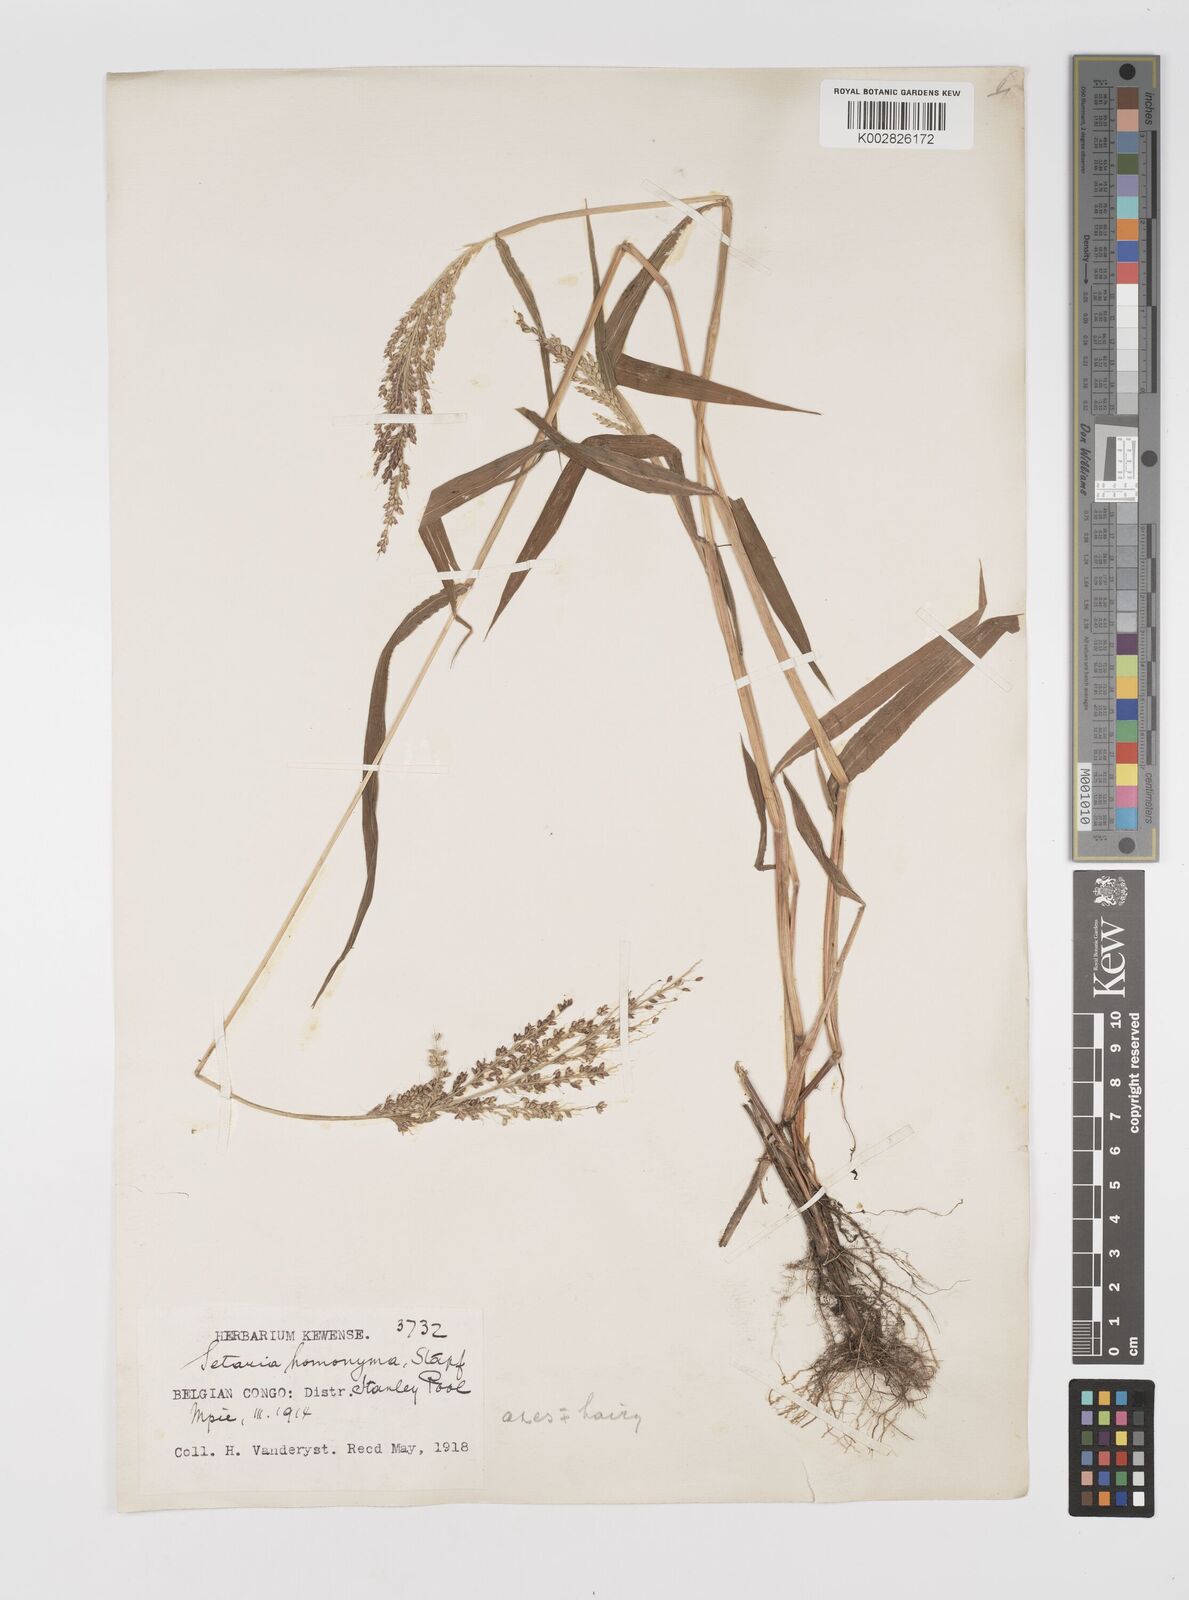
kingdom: Plantae
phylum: Tracheophyta
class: Liliopsida
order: Poales
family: Poaceae
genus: Setaria
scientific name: Setaria barbata
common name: East indian bristlegrass
